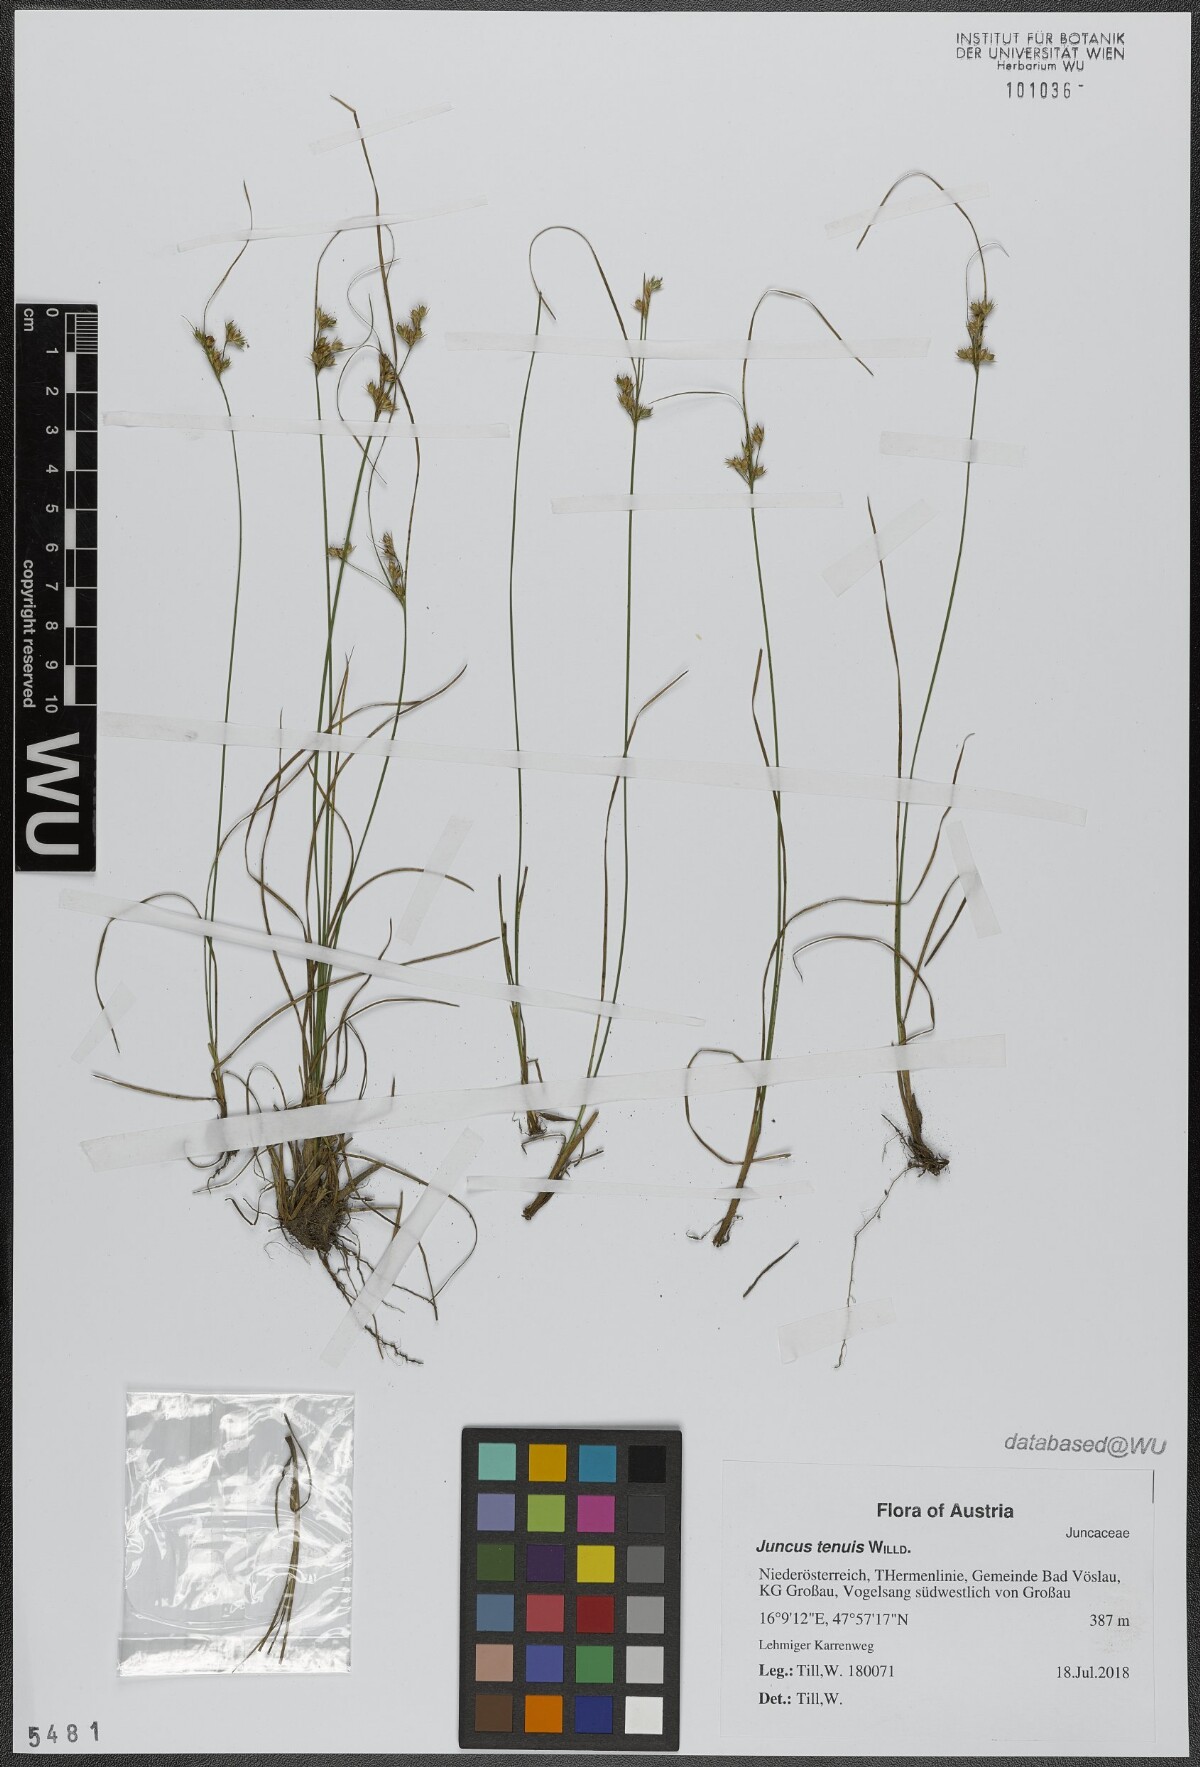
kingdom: Plantae
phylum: Tracheophyta
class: Liliopsida
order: Poales
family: Juncaceae
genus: Juncus
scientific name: Juncus tenuis
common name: Slender rush
